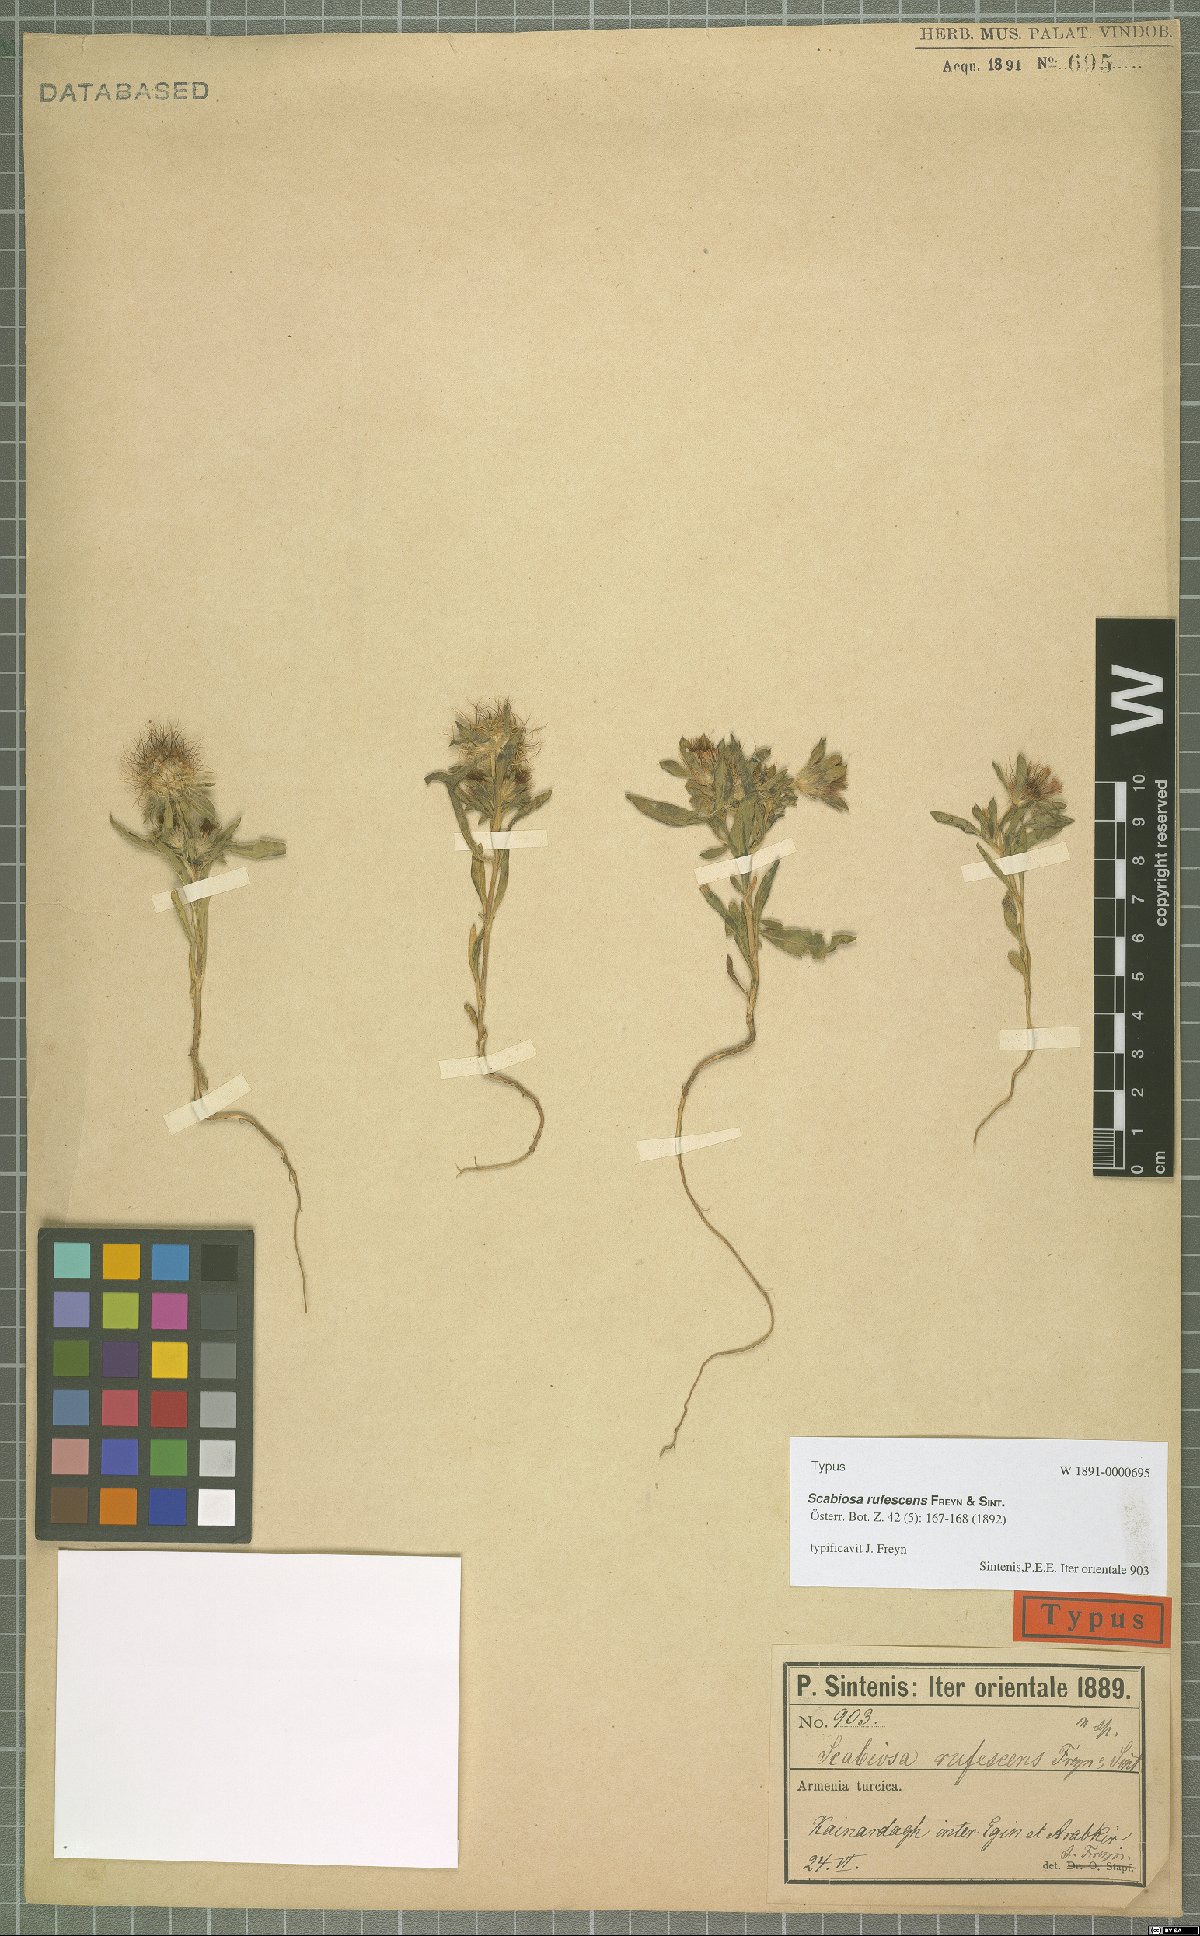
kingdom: Plantae
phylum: Tracheophyta
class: Magnoliopsida
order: Dipsacales
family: Caprifoliaceae
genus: Lomelosia
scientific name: Lomelosia rufescens
